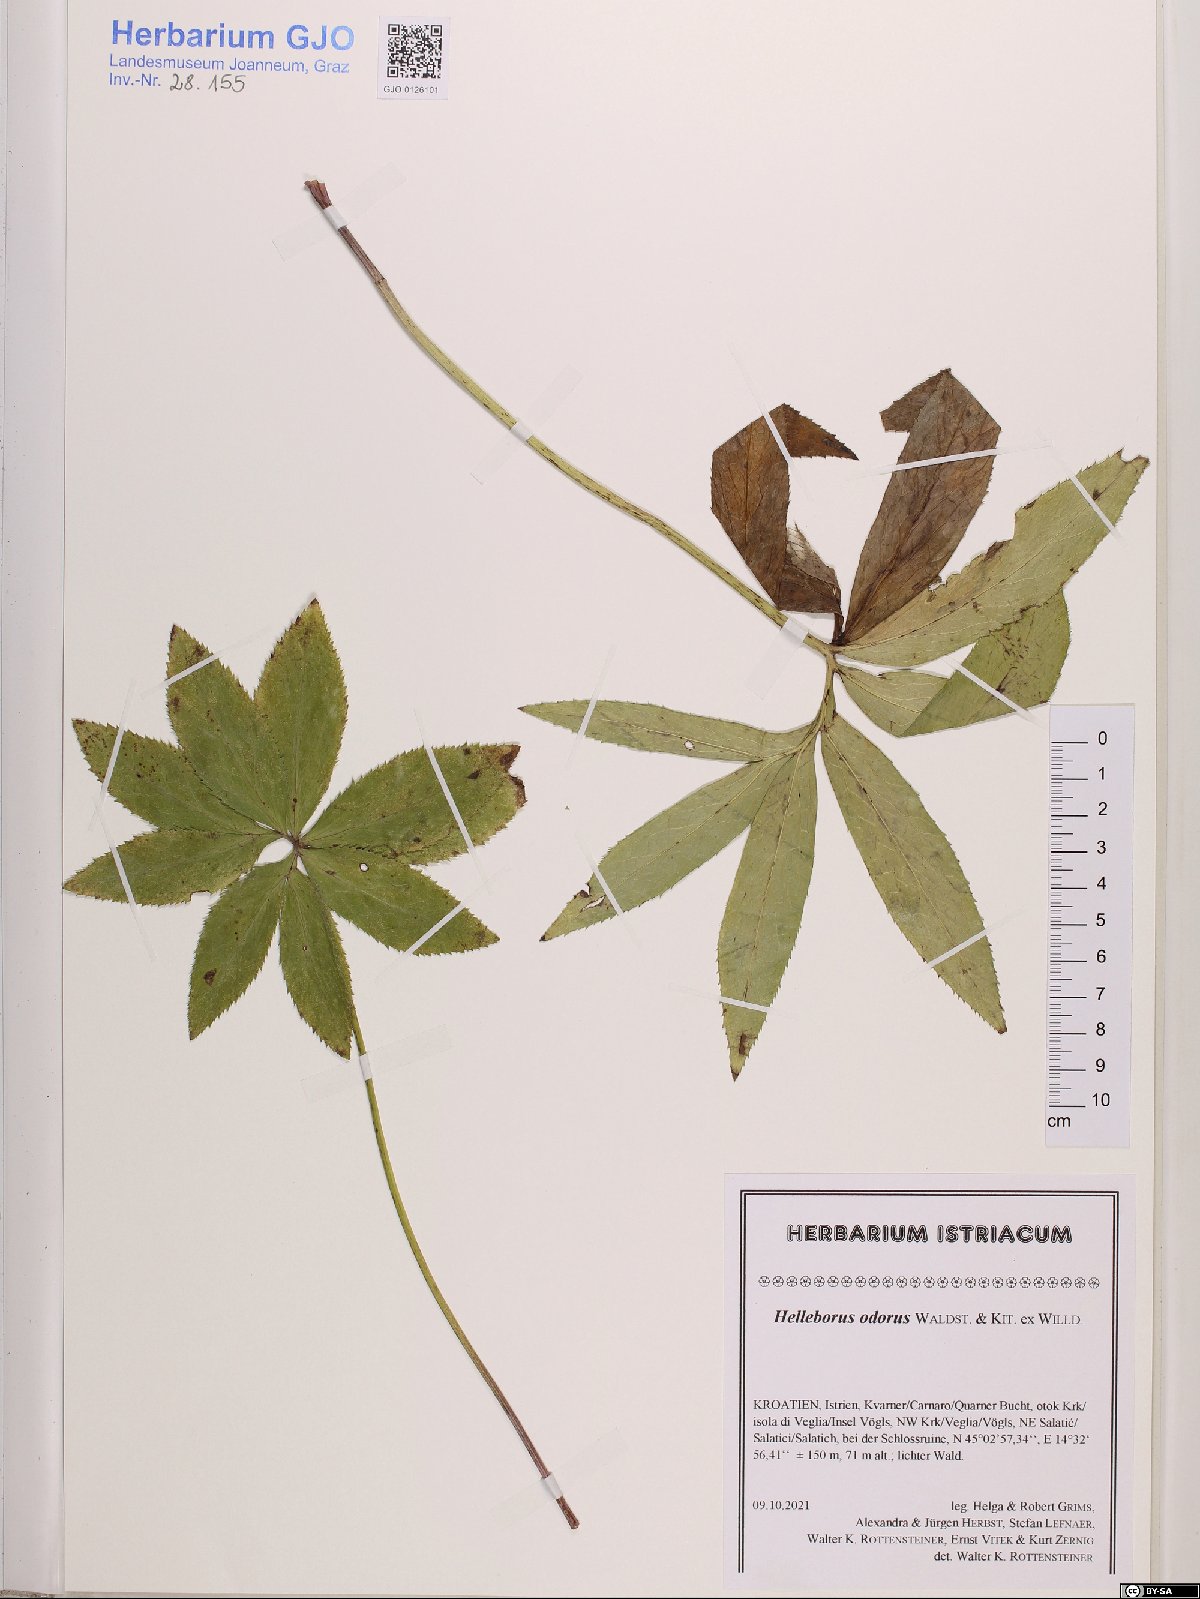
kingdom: Plantae
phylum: Tracheophyta
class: Magnoliopsida
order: Ranunculales
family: Ranunculaceae
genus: Helleborus
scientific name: Helleborus odorus
